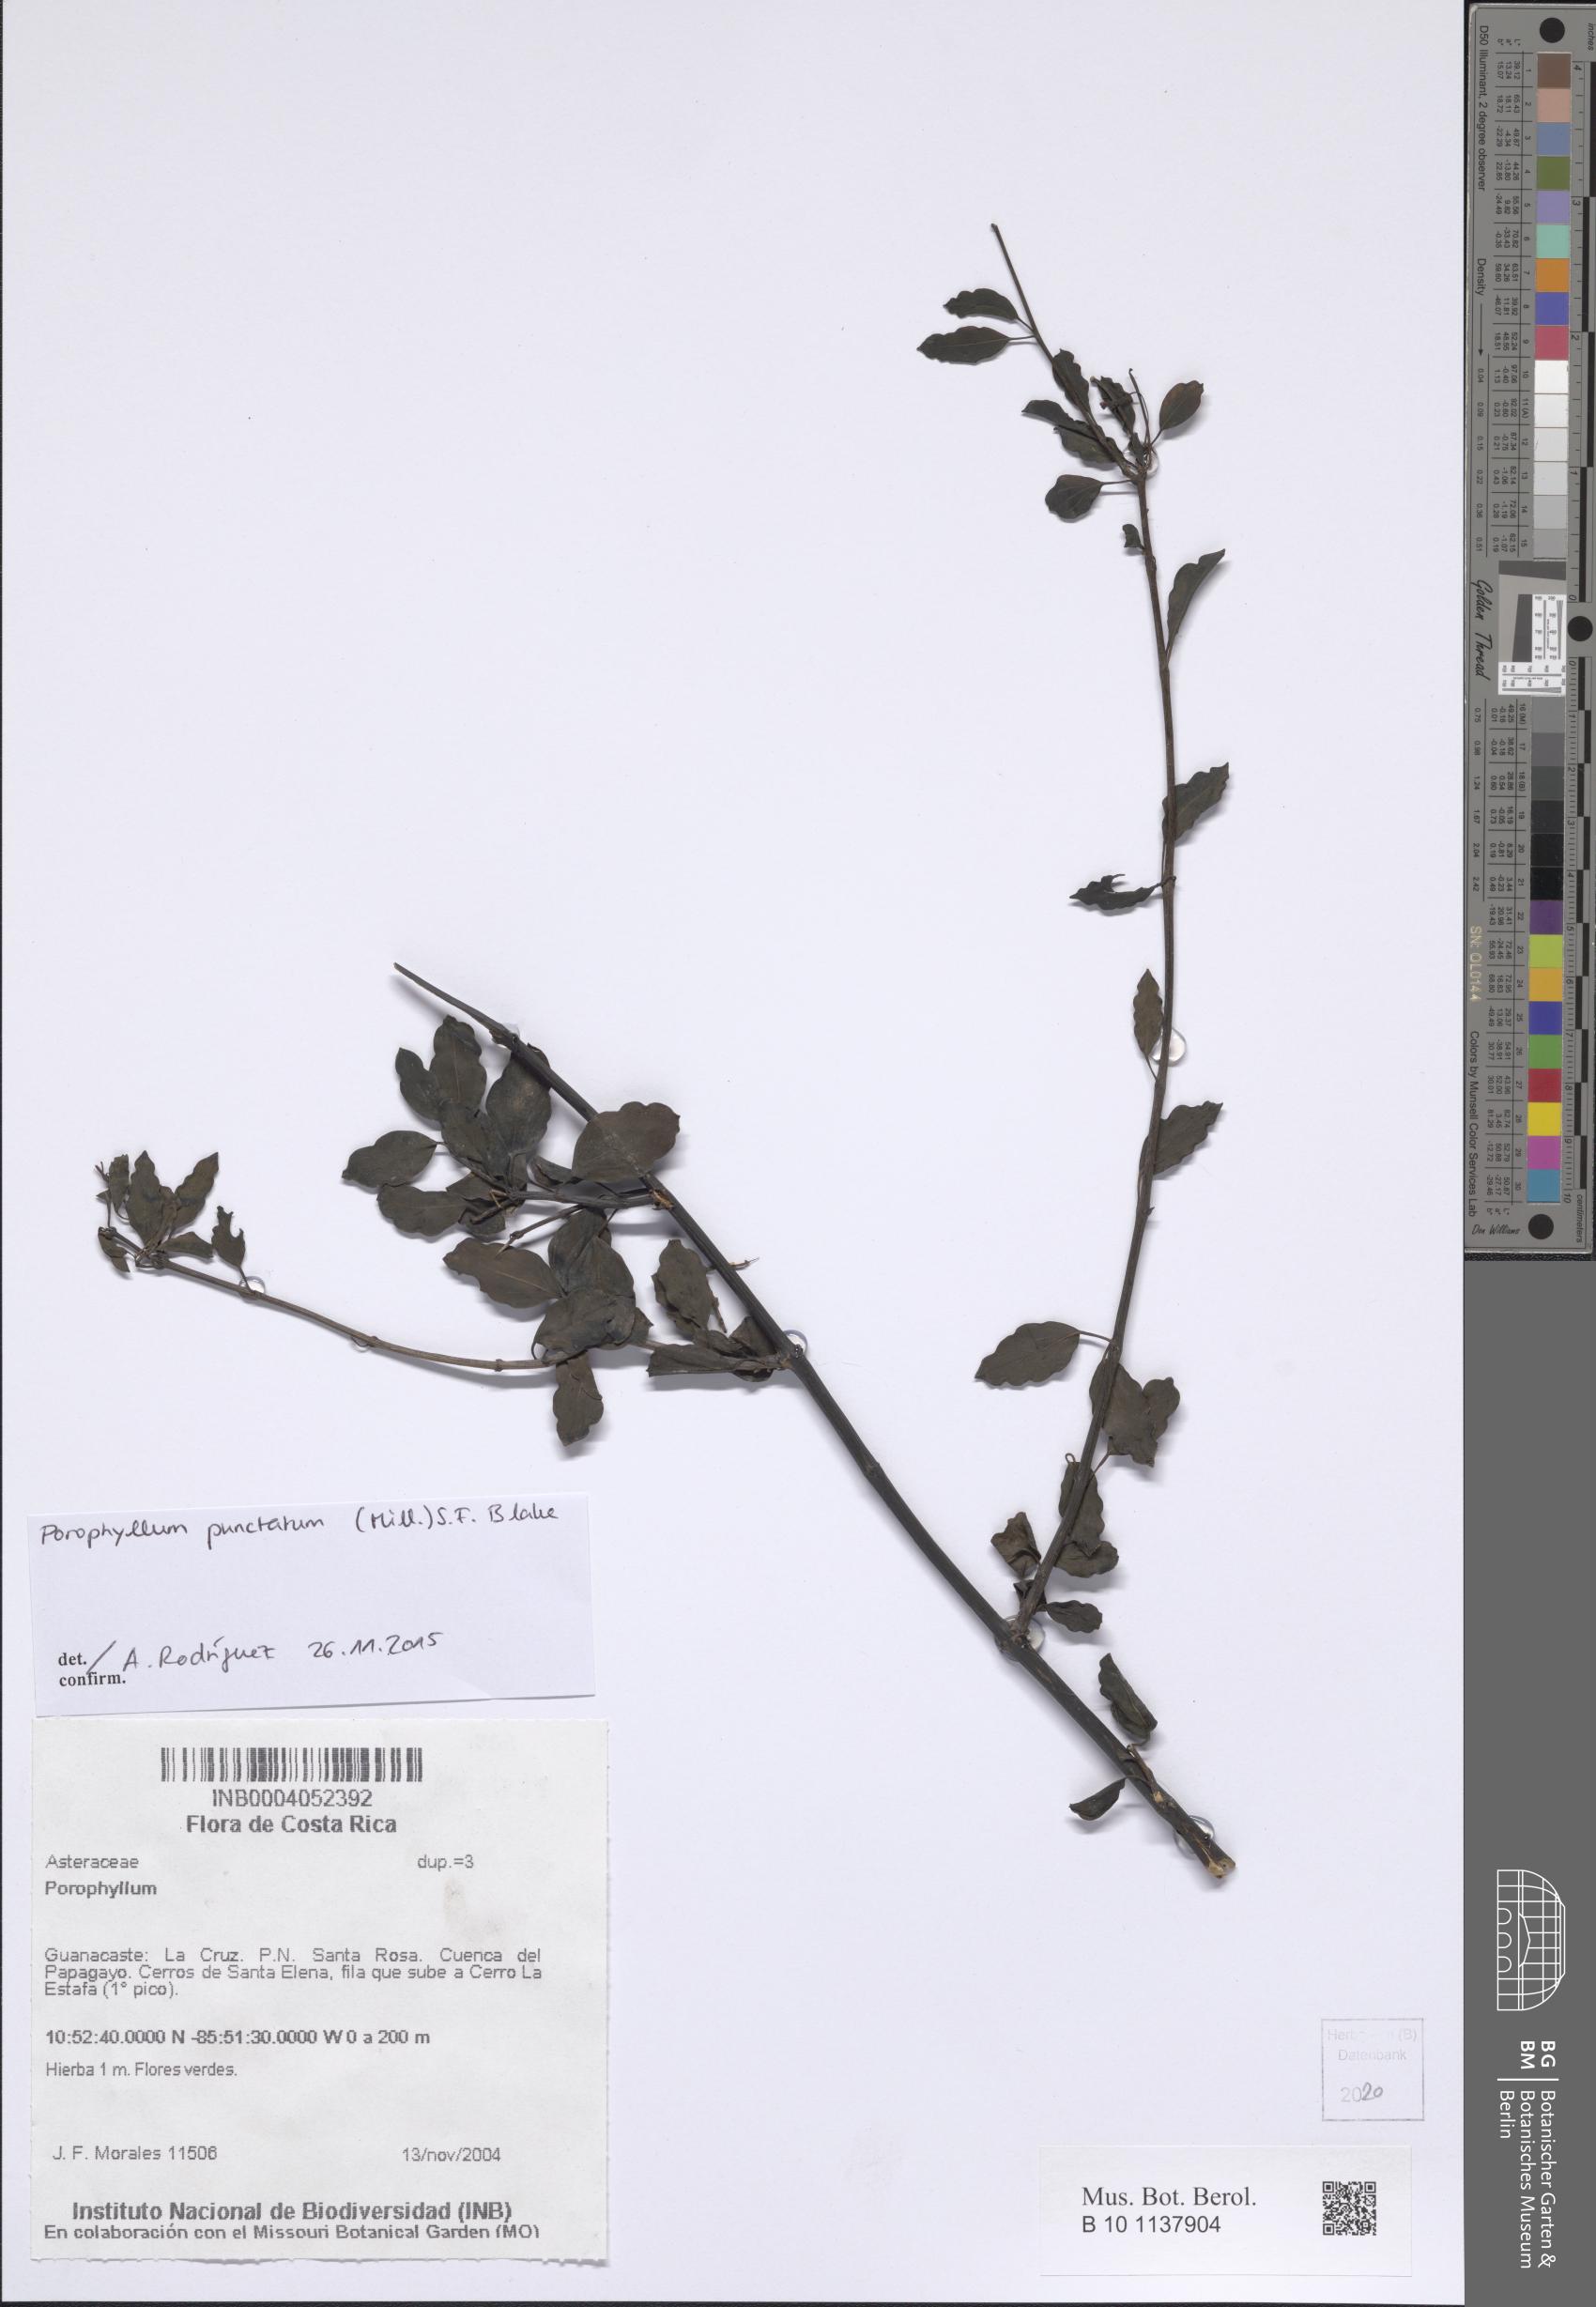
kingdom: Plantae
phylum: Tracheophyta
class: Magnoliopsida
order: Asterales
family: Asteraceae
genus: Porophyllum
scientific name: Porophyllum punctatum
